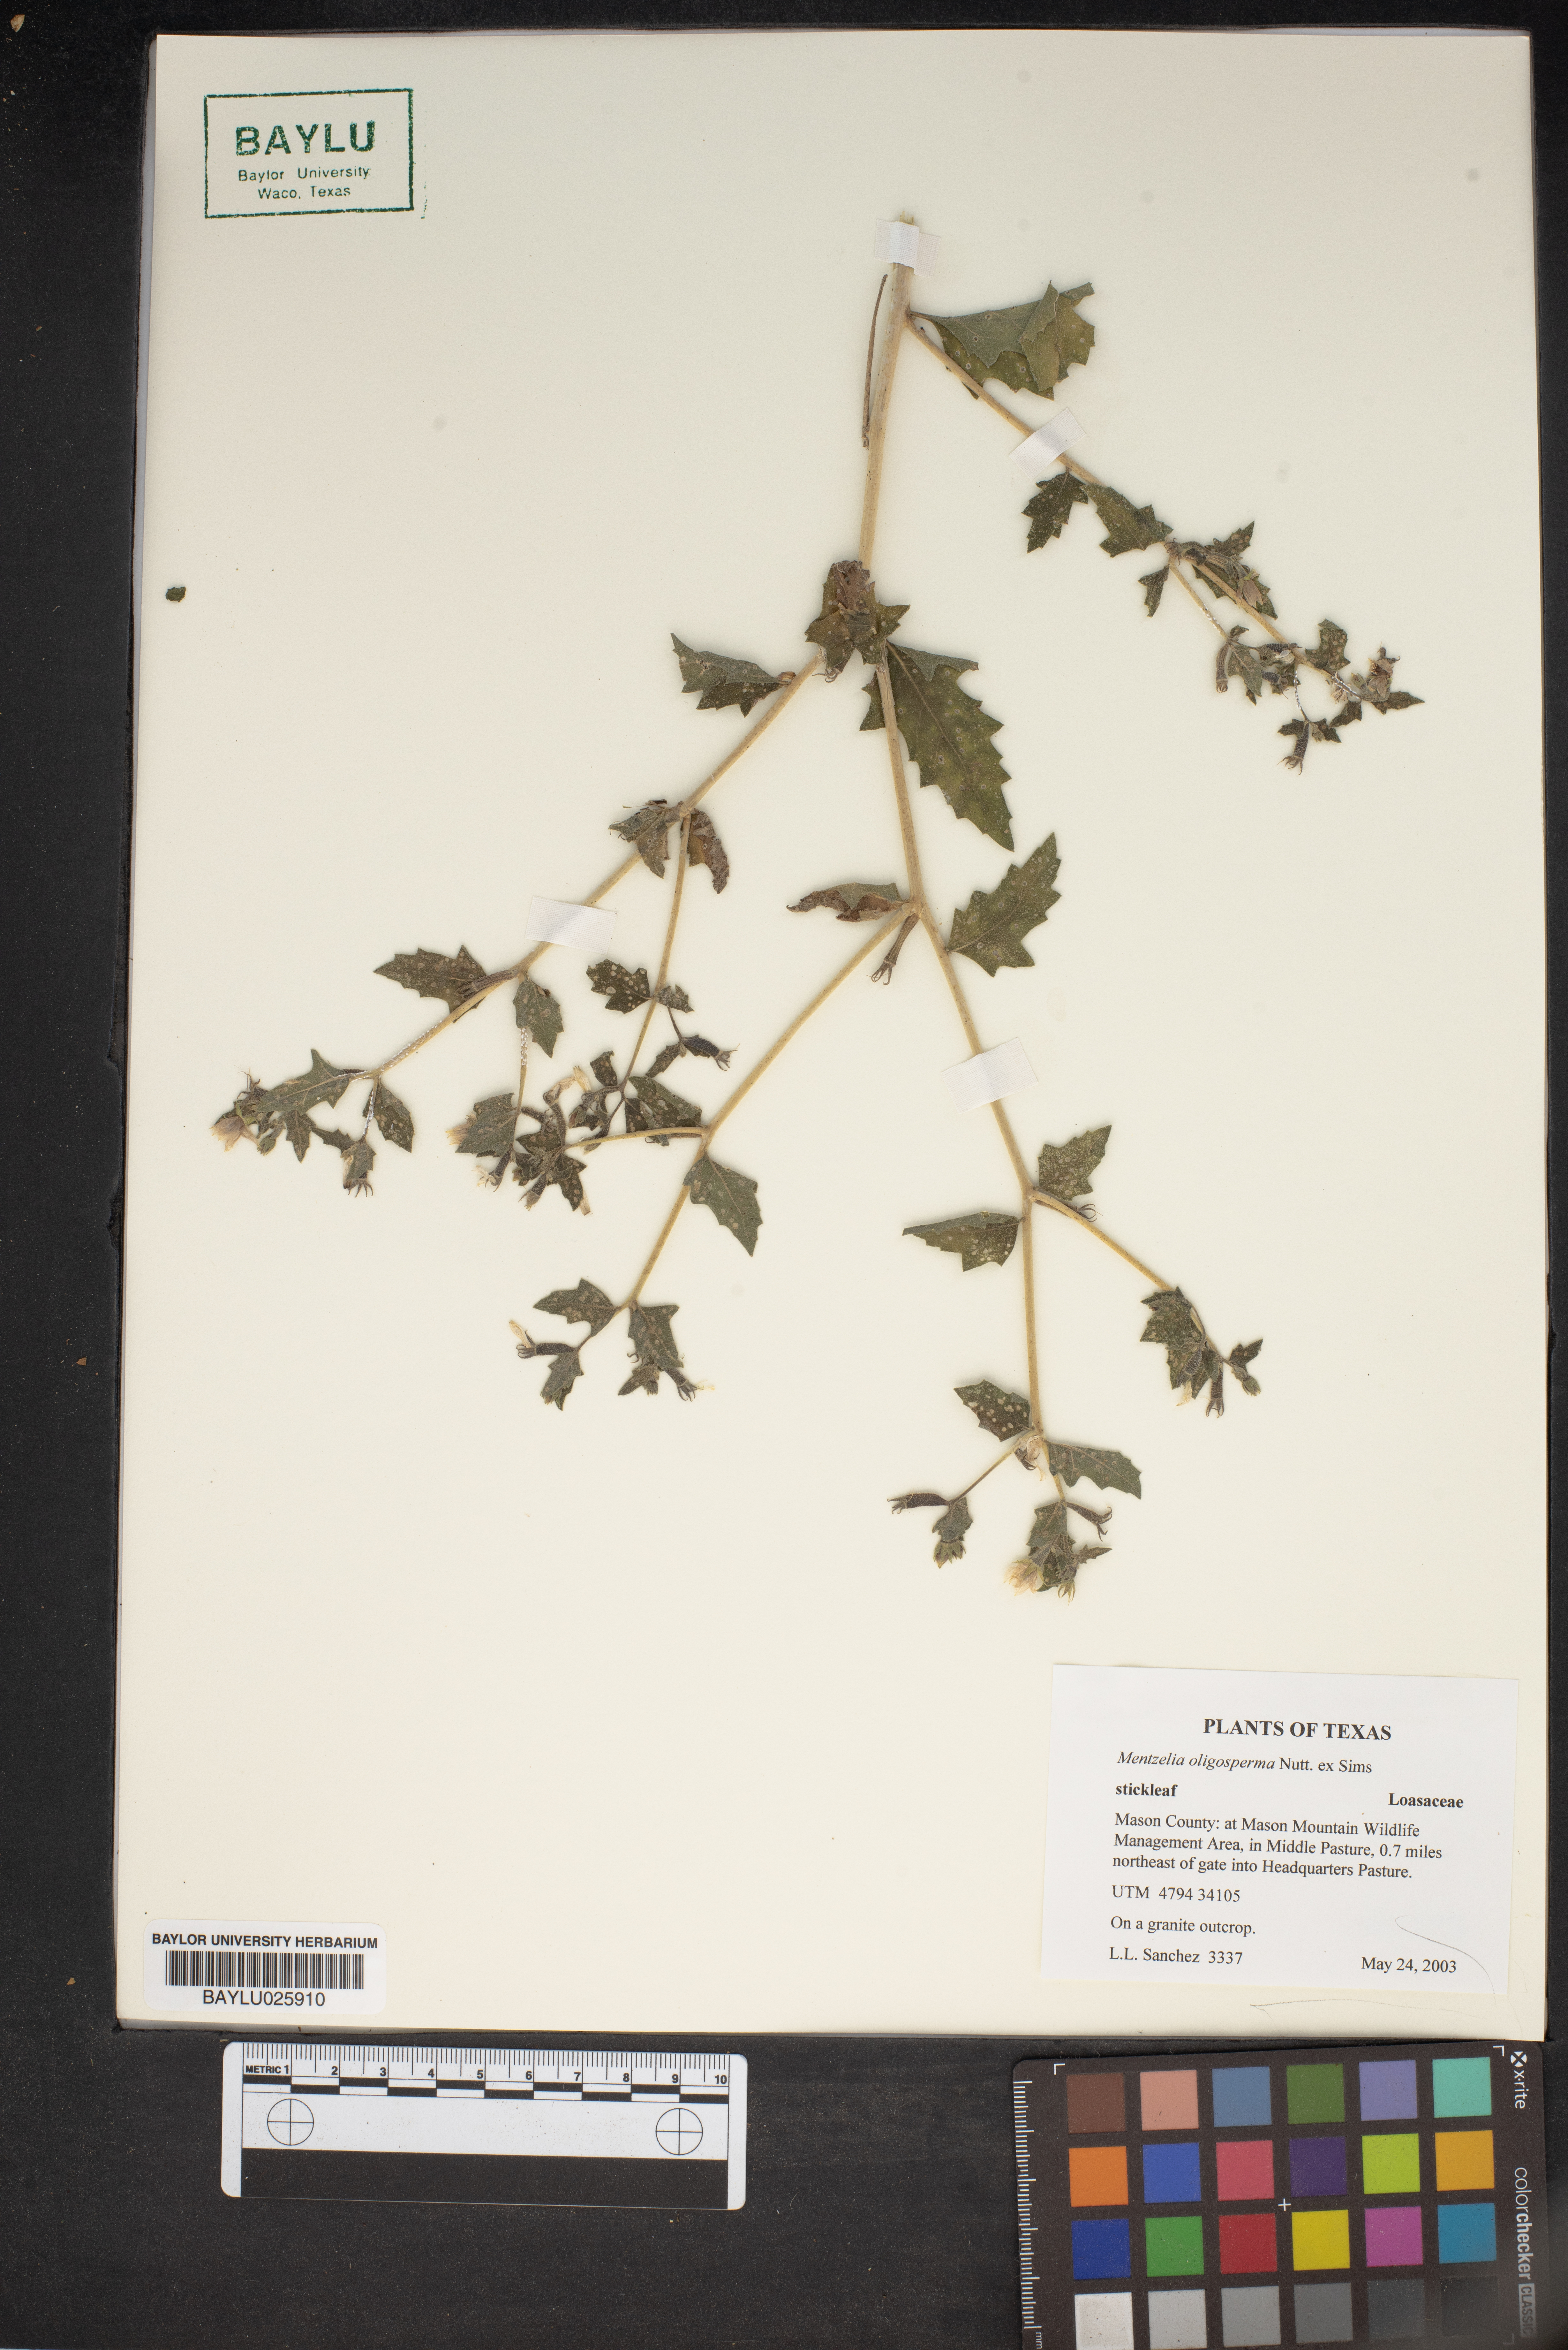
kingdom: Plantae
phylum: Tracheophyta
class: Magnoliopsida
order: Cornales
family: Loasaceae
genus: Mentzelia
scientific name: Mentzelia oligosperma
